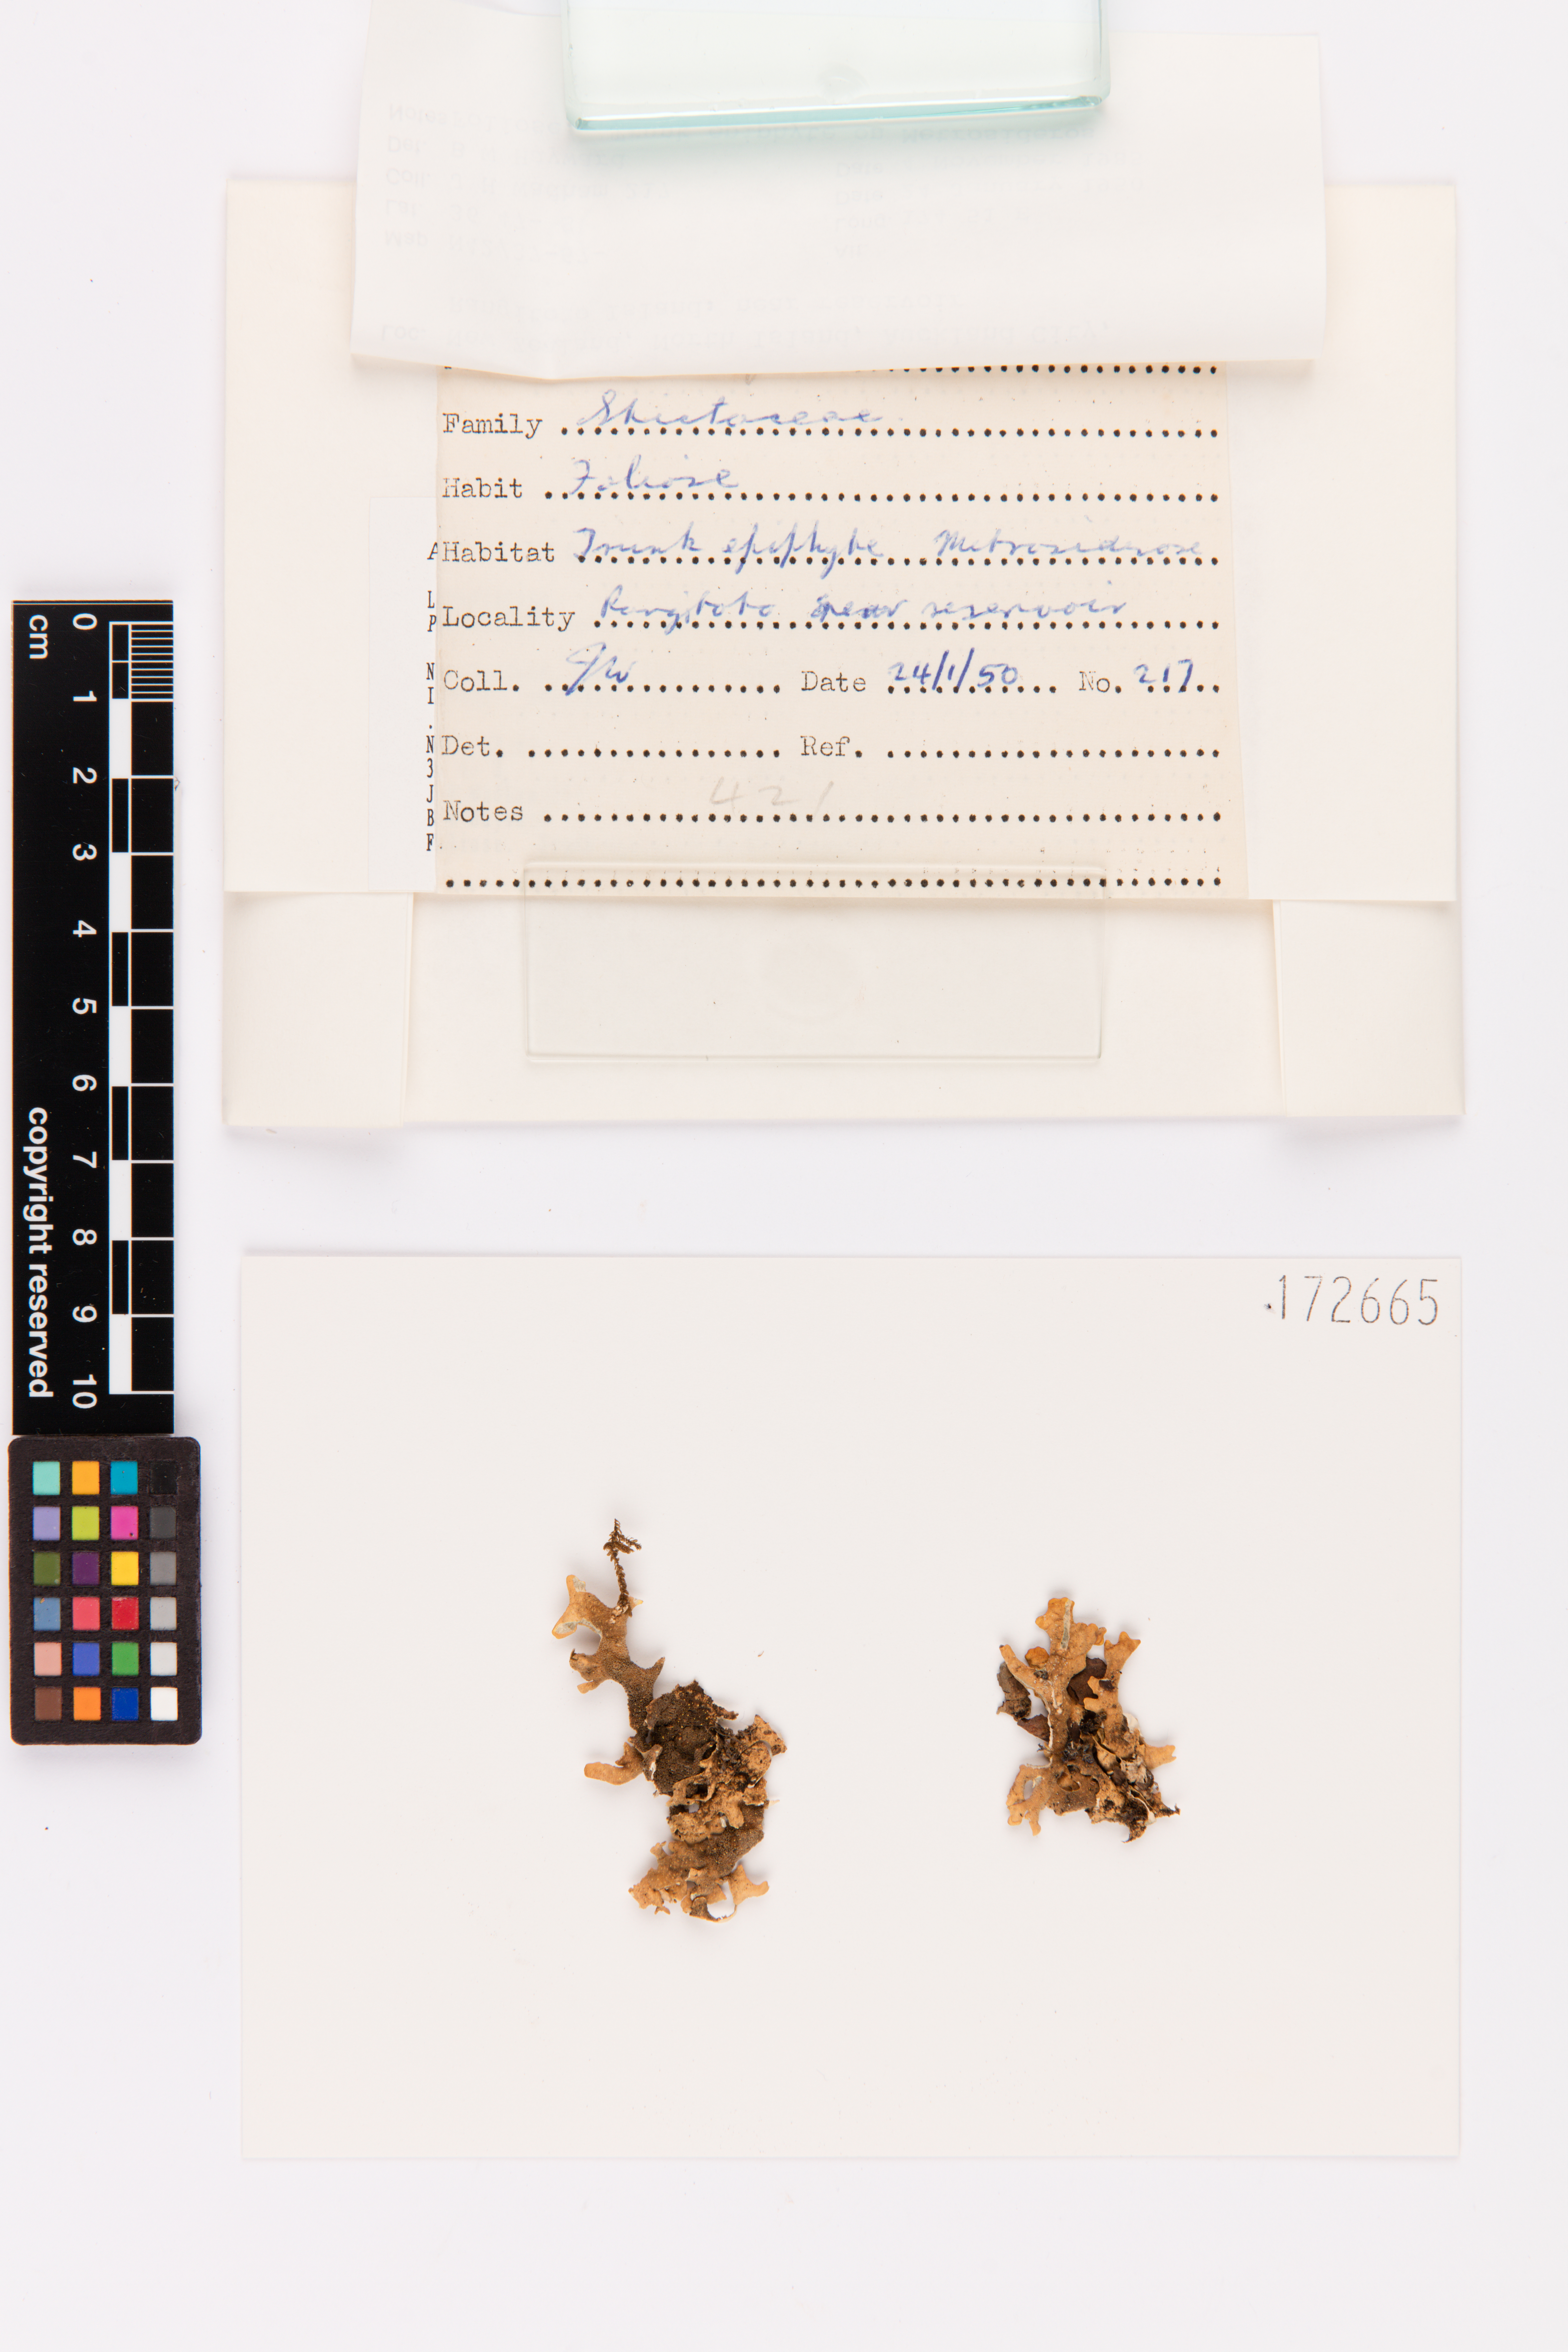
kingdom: Fungi
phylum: Ascomycota
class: Lecanoromycetes
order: Peltigerales
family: Lobariaceae
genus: Pseudocyphellaria
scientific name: Pseudocyphellaria carpoloma
